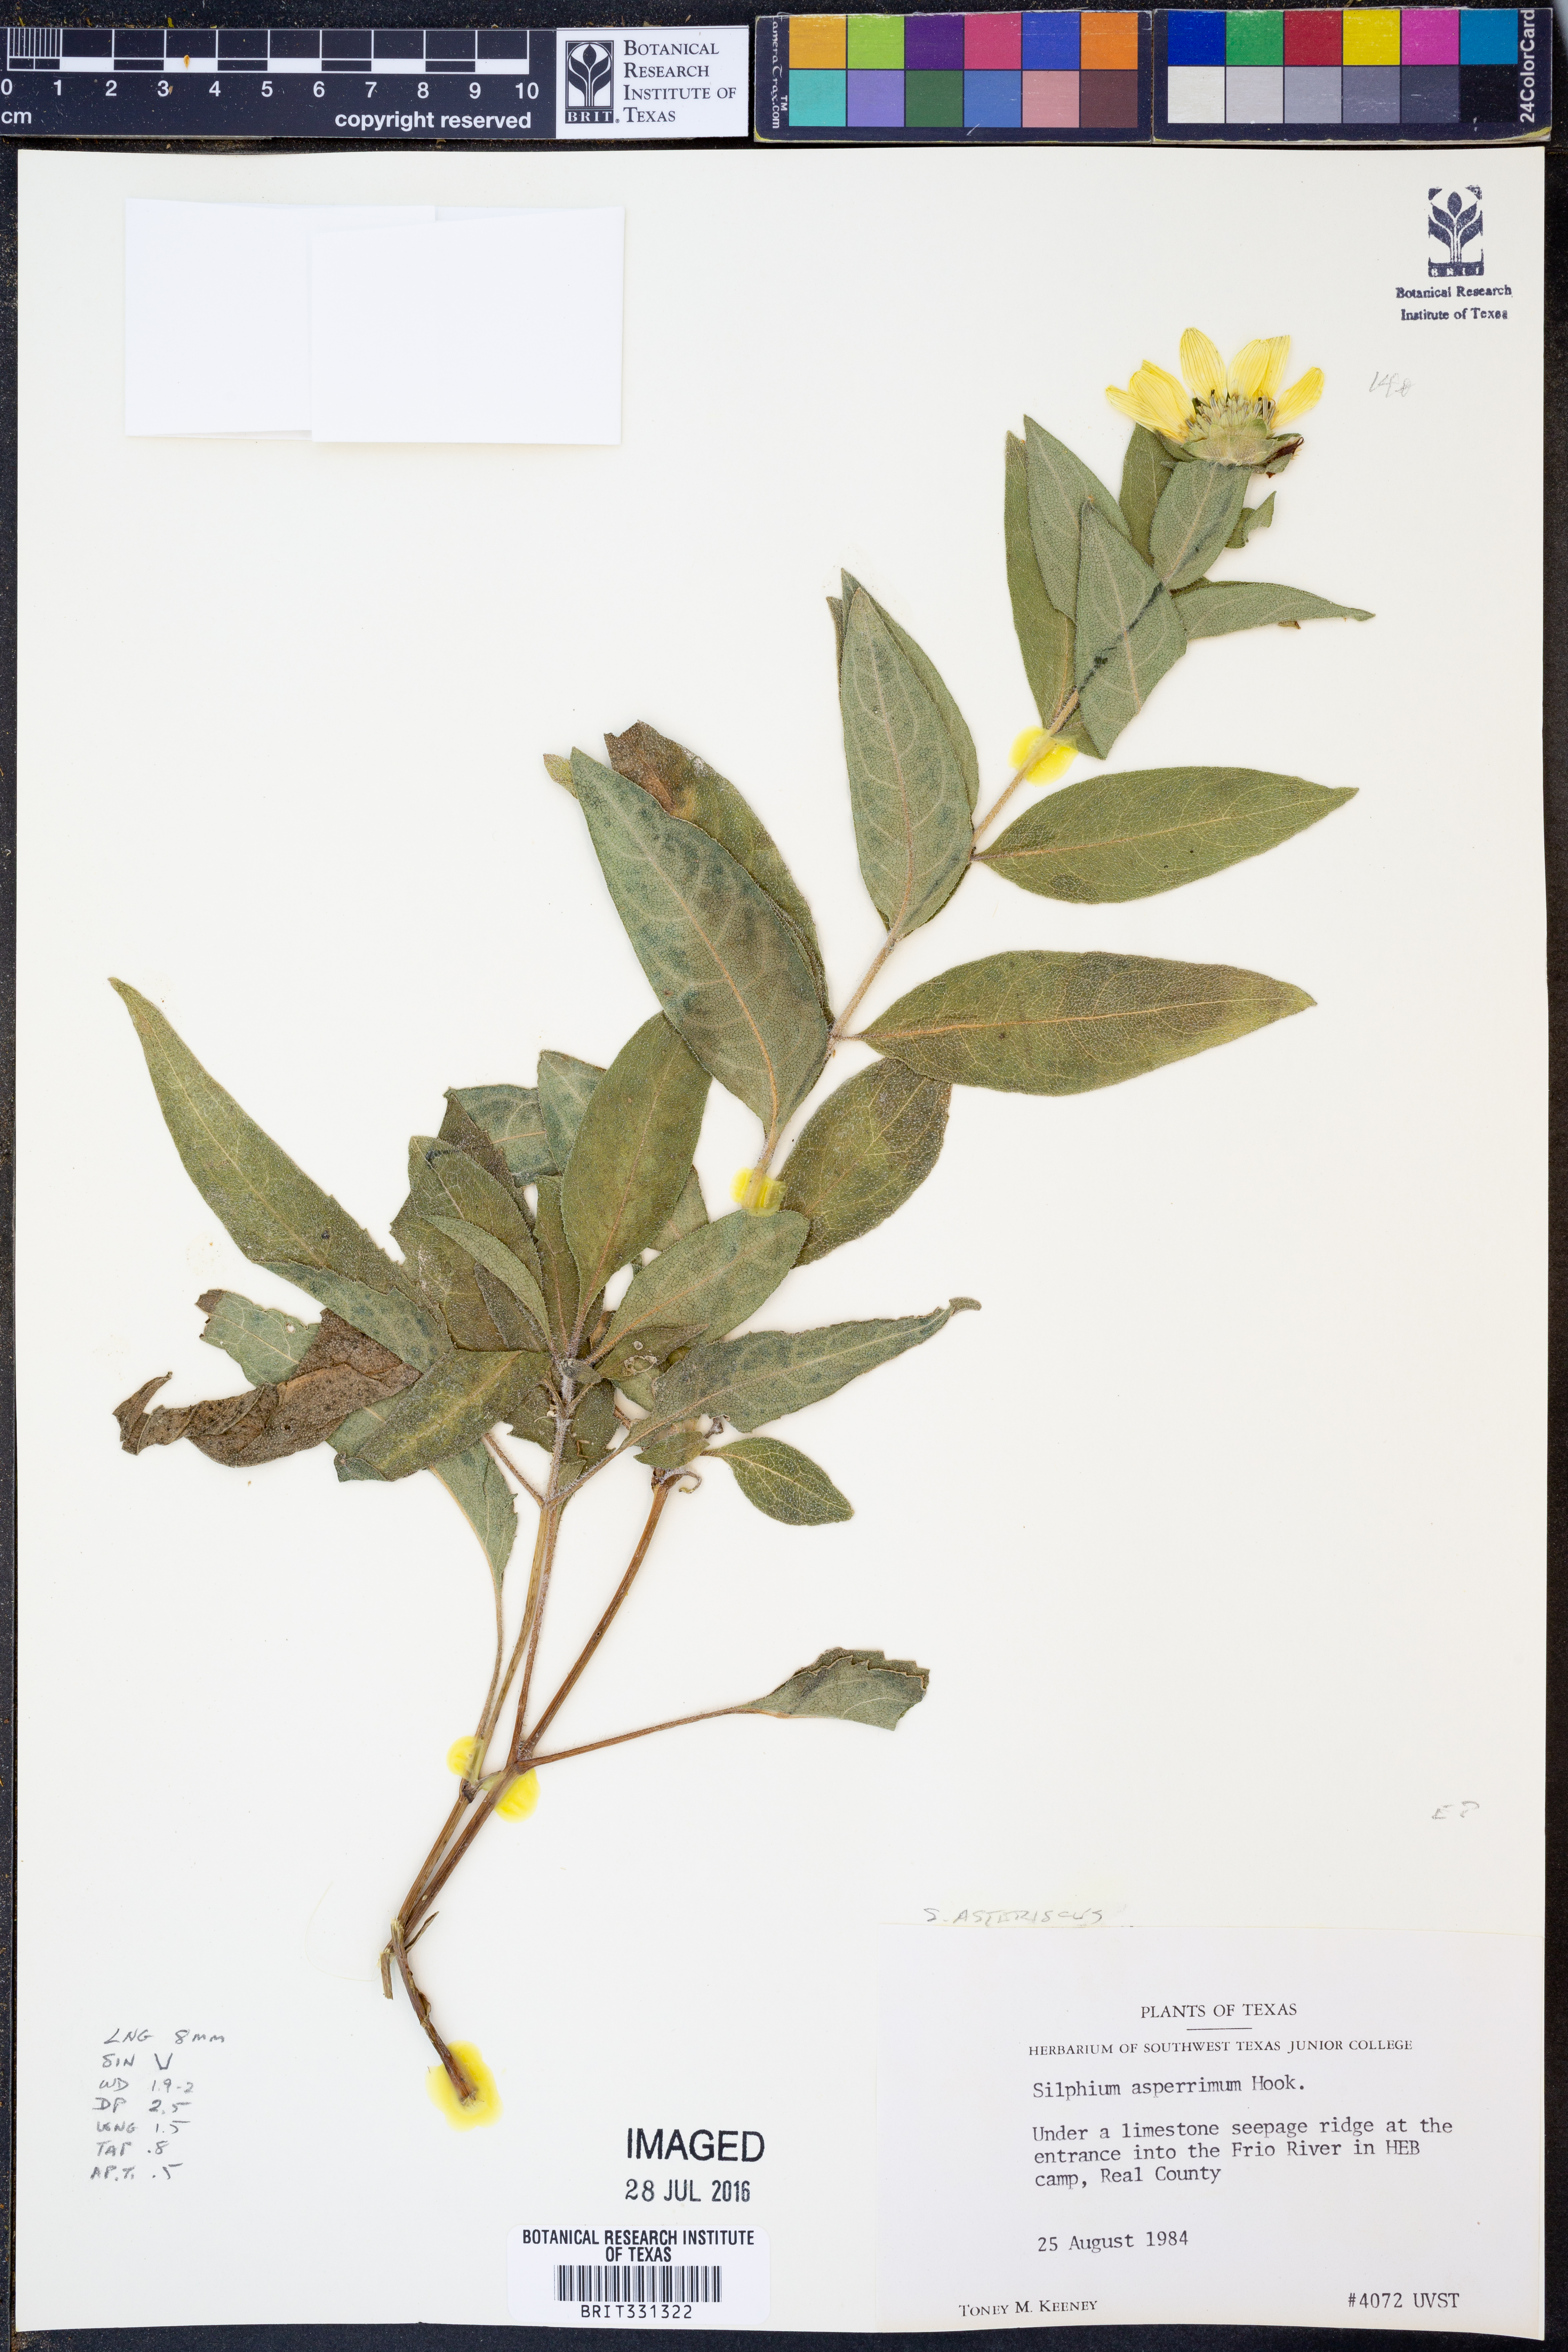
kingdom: Plantae
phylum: Tracheophyta
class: Magnoliopsida
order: Asterales
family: Asteraceae
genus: Silphium
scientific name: Silphium asteriscus
